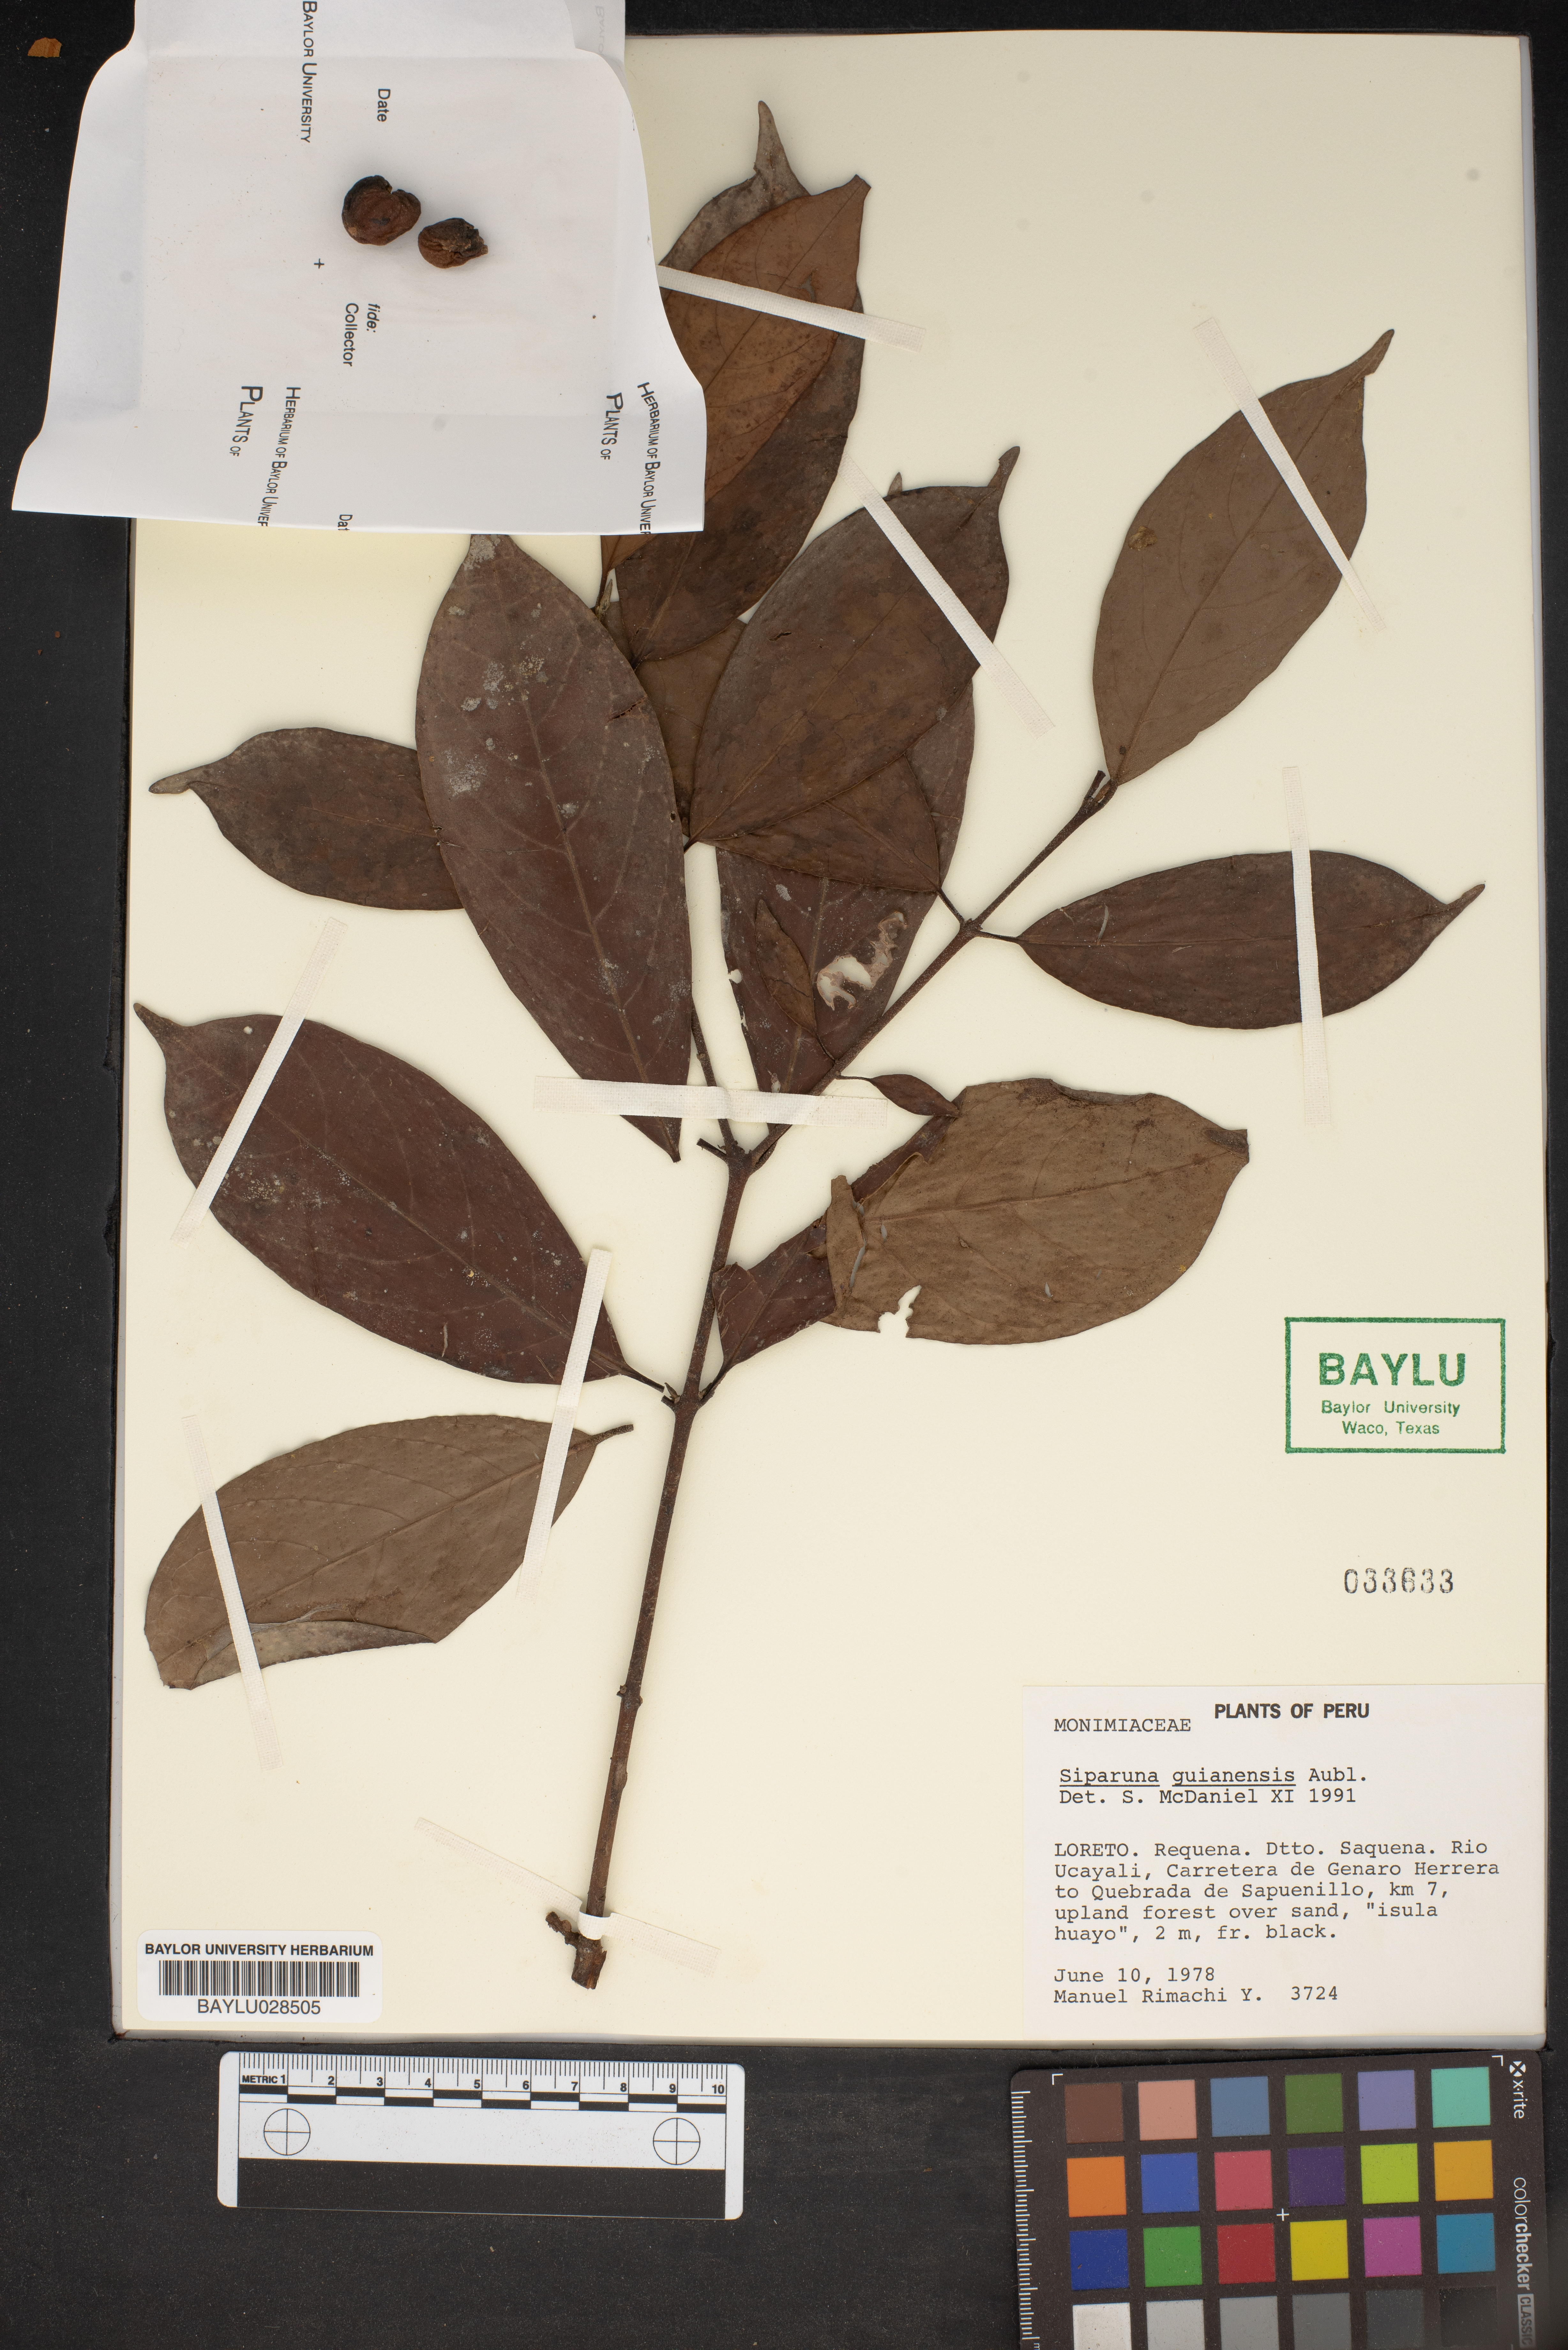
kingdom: Plantae
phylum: Tracheophyta
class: Magnoliopsida
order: Laurales
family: Siparunaceae
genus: Siparuna
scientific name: Siparuna guianensis
